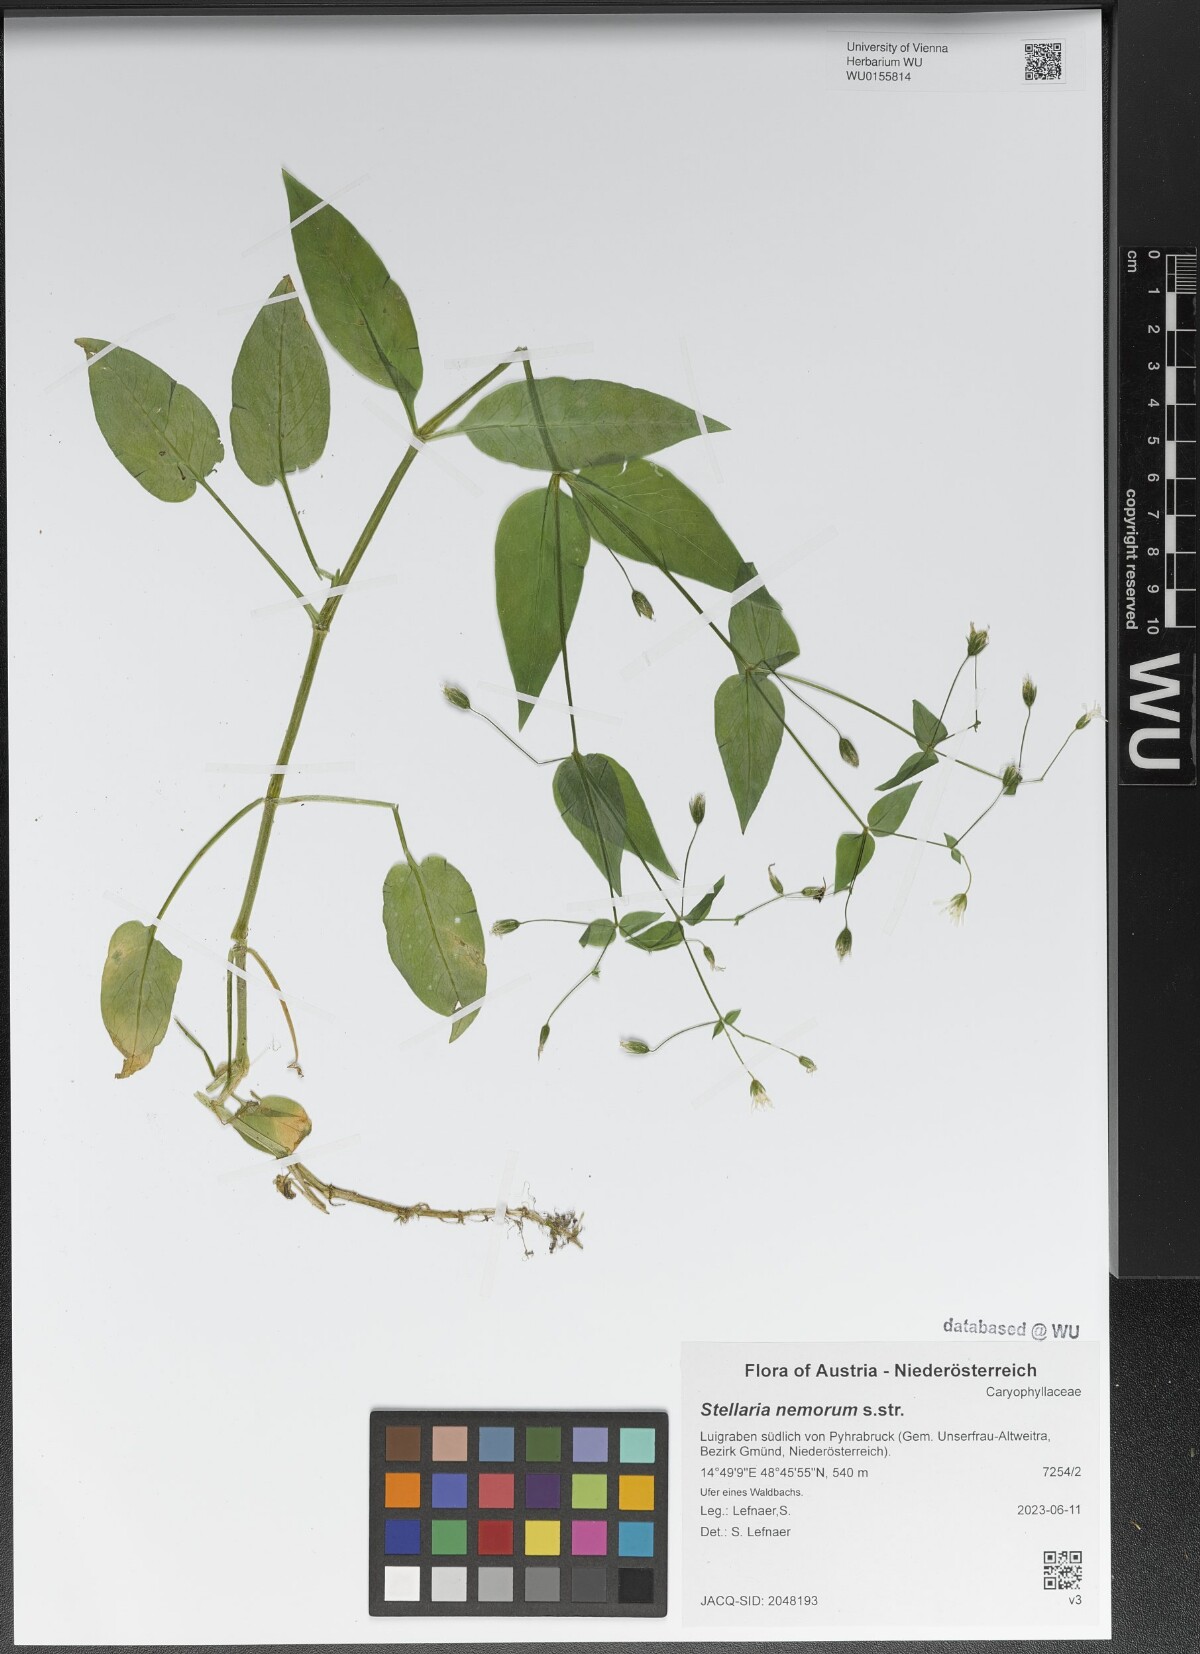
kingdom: Plantae
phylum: Tracheophyta
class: Magnoliopsida
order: Caryophyllales
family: Caryophyllaceae
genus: Stellaria
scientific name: Stellaria nemorum
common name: Wood stitchwort
